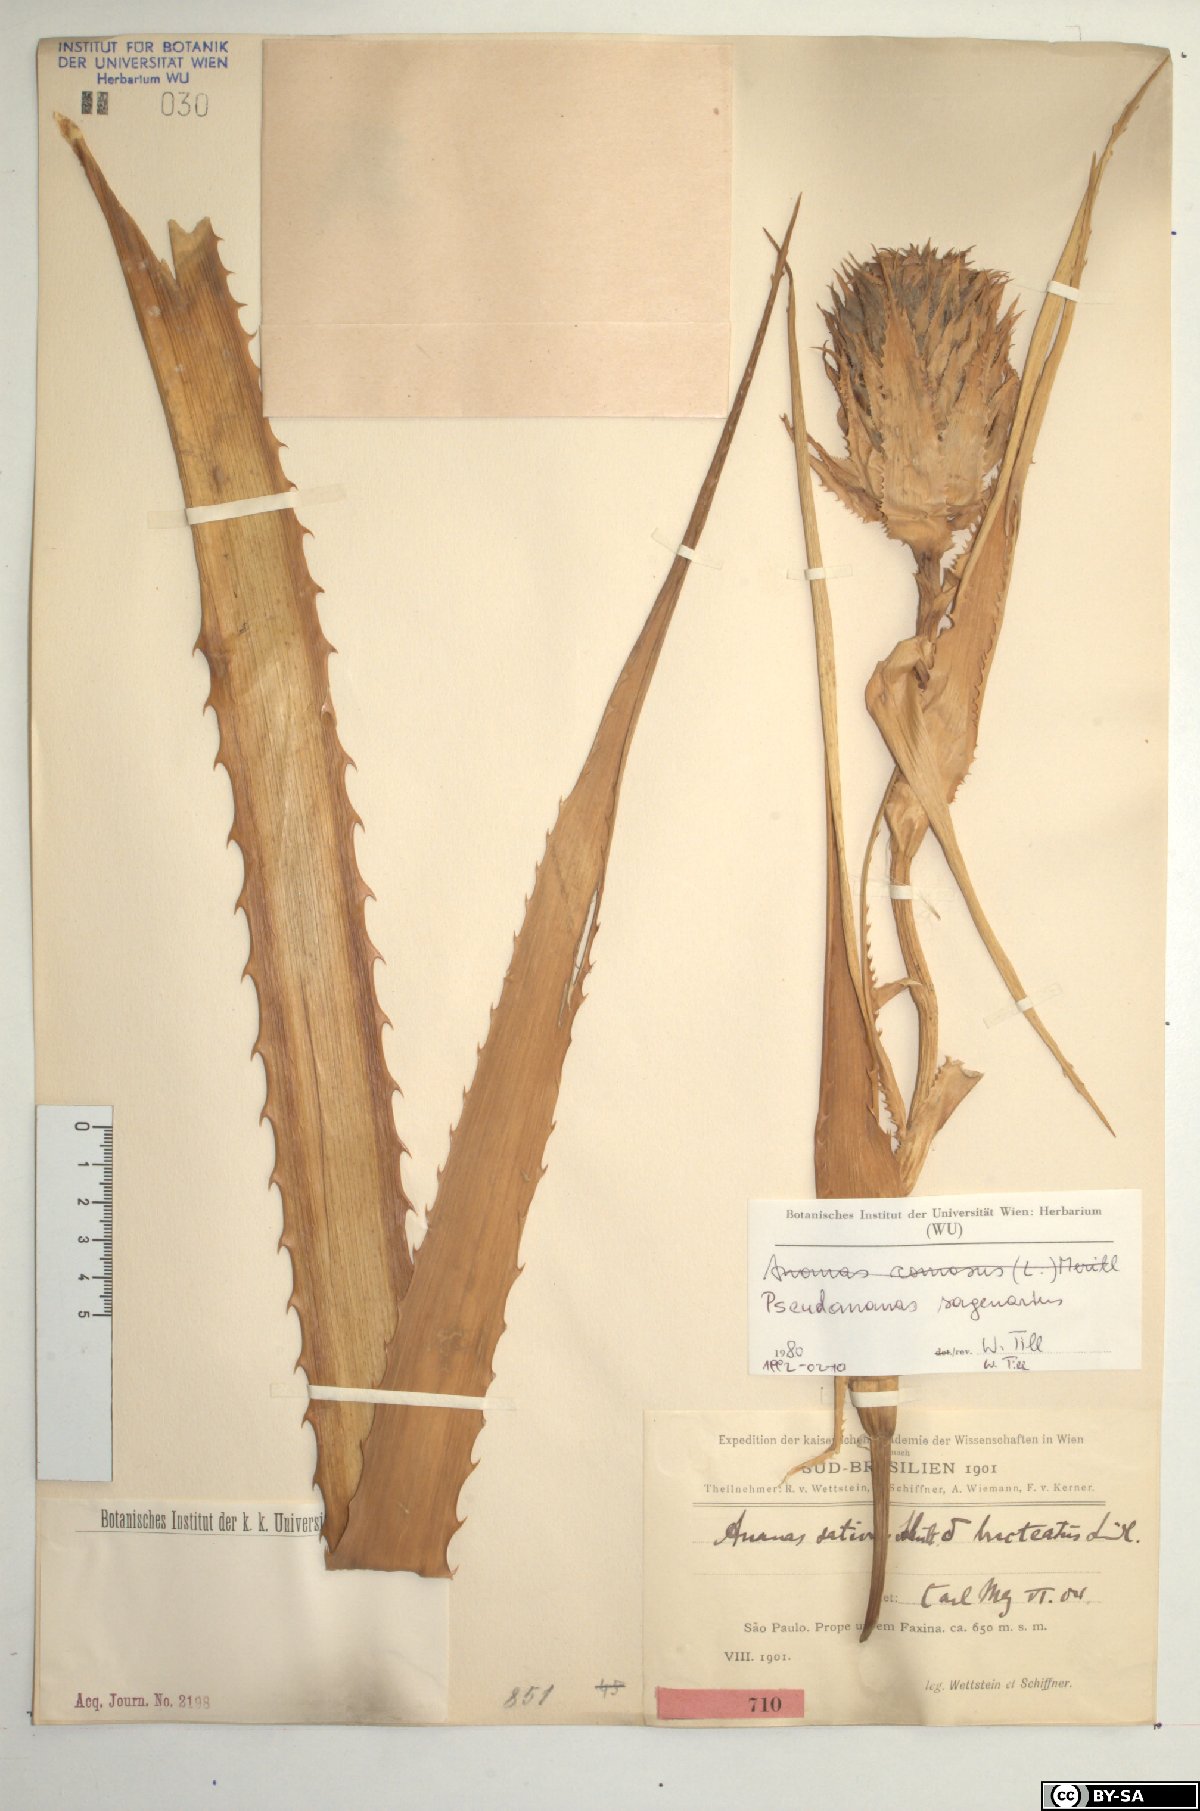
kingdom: Plantae
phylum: Tracheophyta
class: Liliopsida
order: Poales
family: Bromeliaceae
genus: Ananas
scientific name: Ananas comosus
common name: Pineapple
